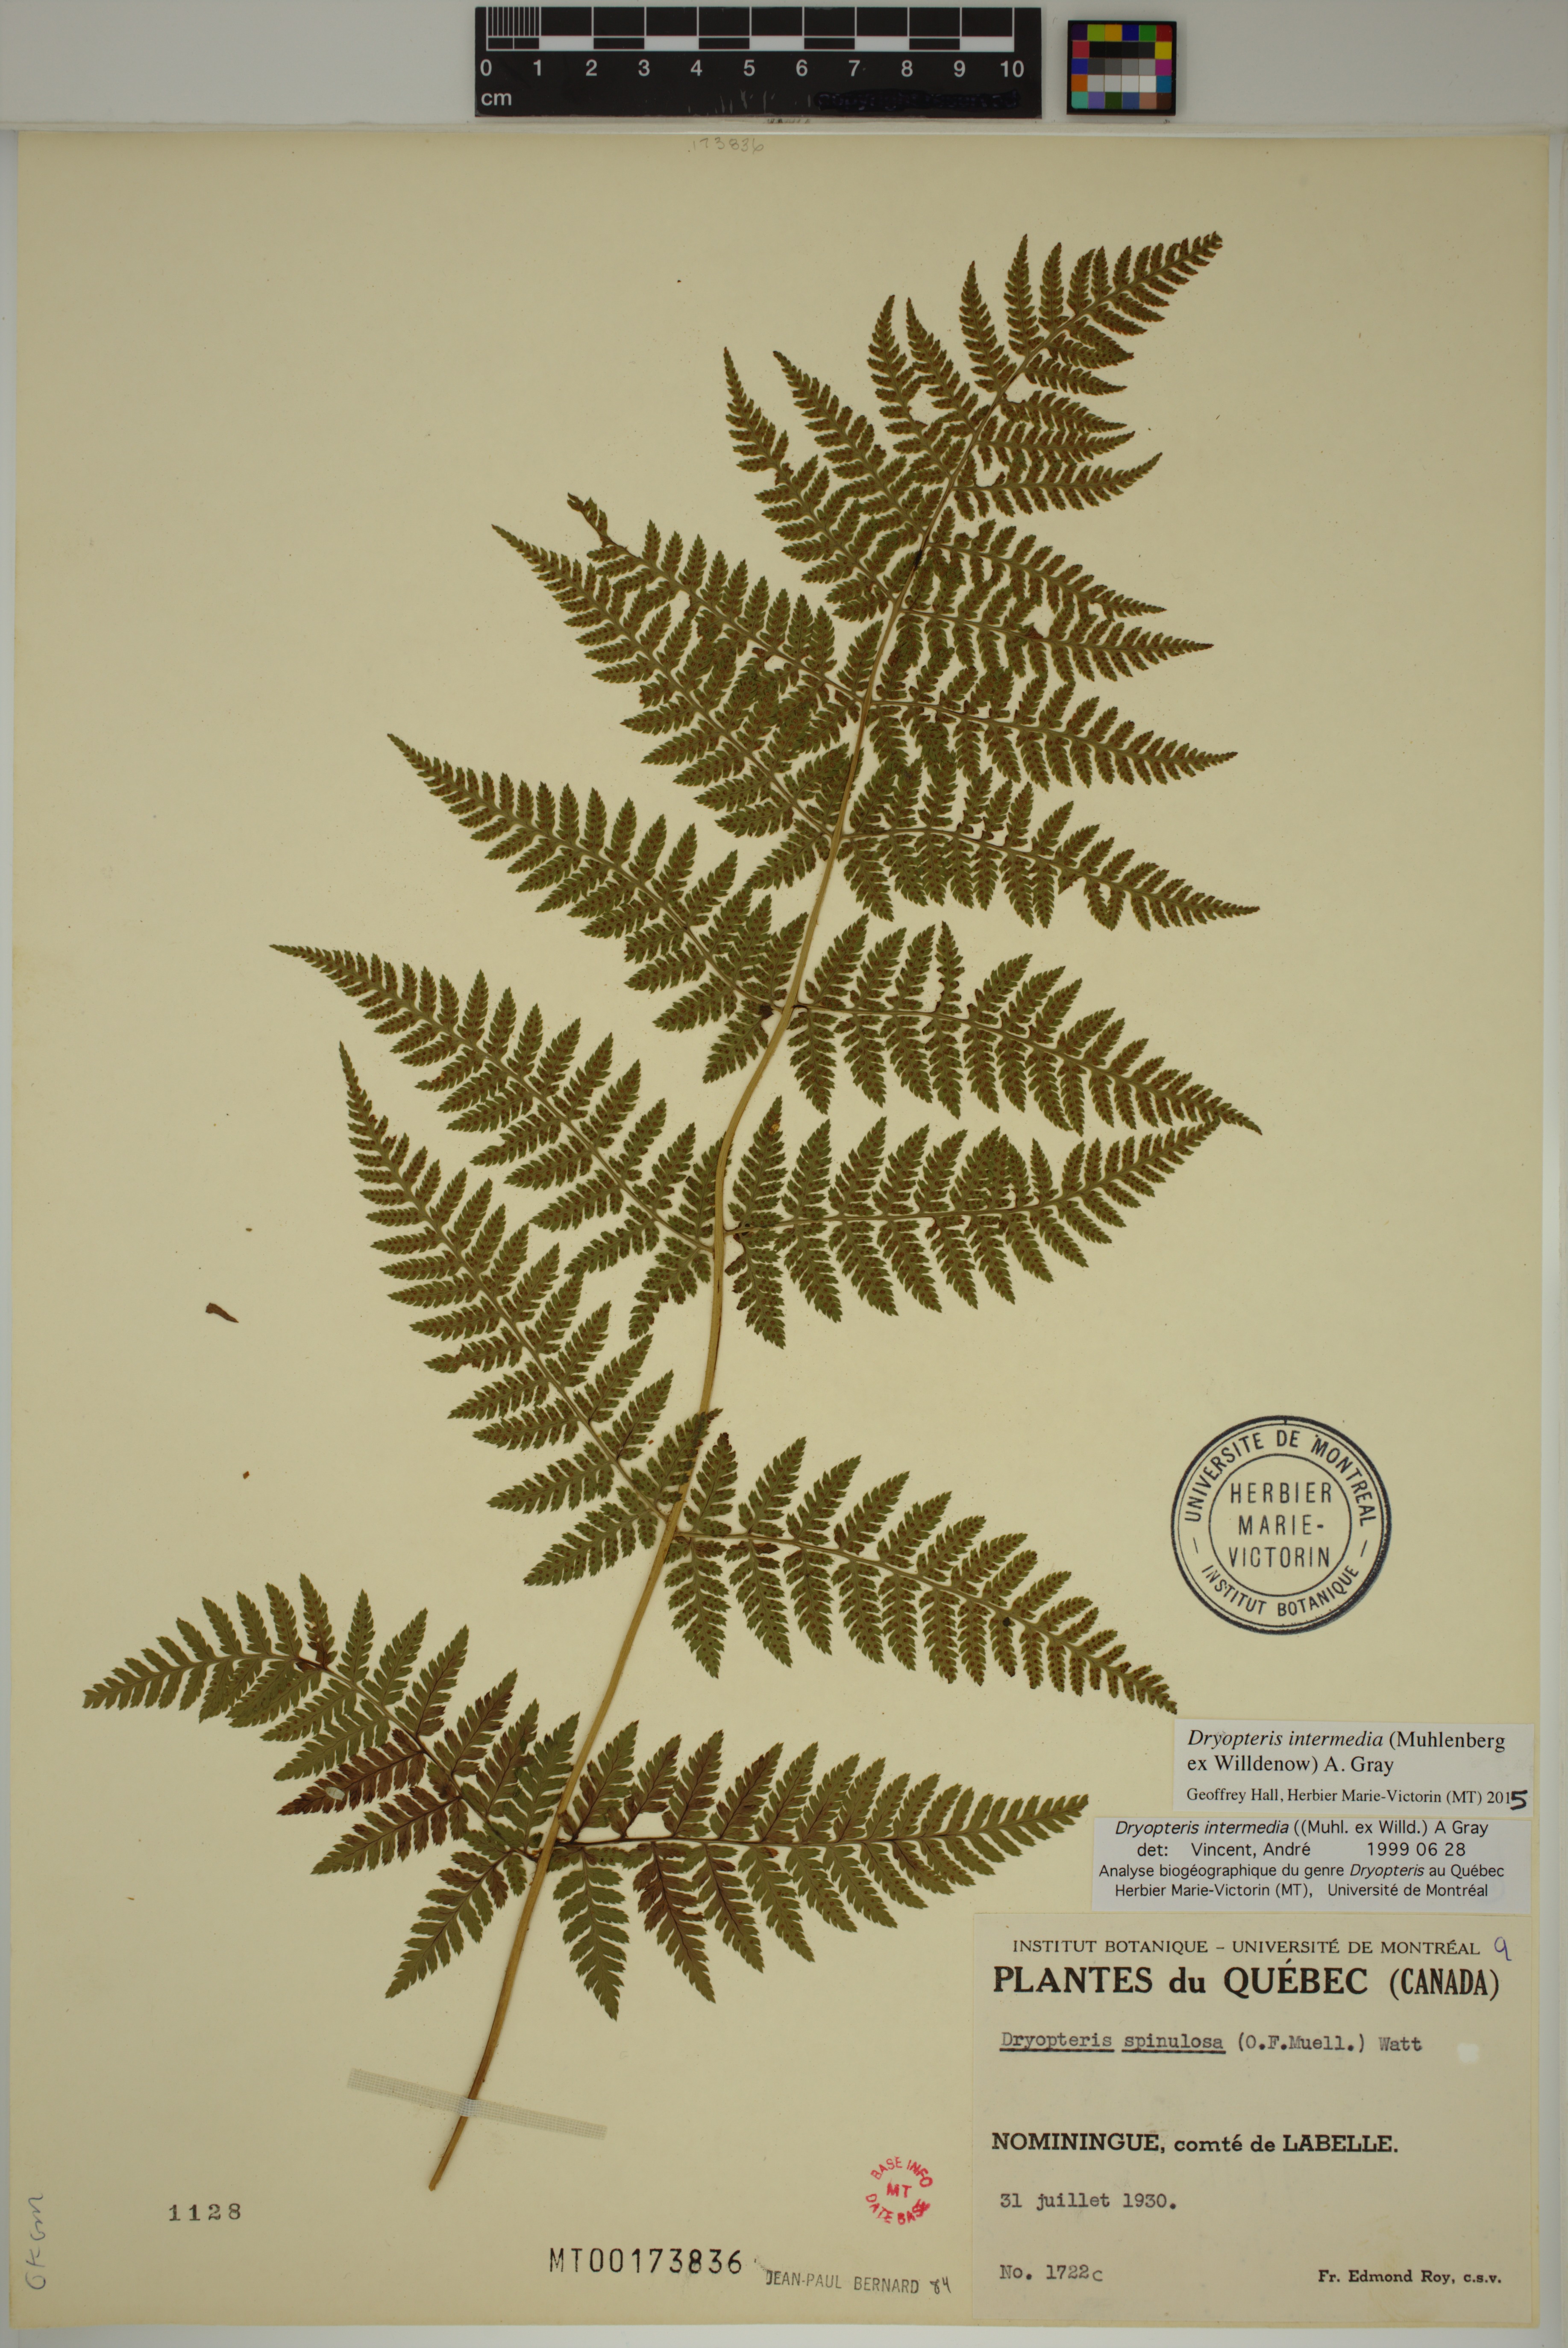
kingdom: Plantae
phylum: Tracheophyta
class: Polypodiopsida
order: Polypodiales
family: Dryopteridaceae
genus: Dryopteris
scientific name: Dryopteris intermedia
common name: Evergreen wood fern
